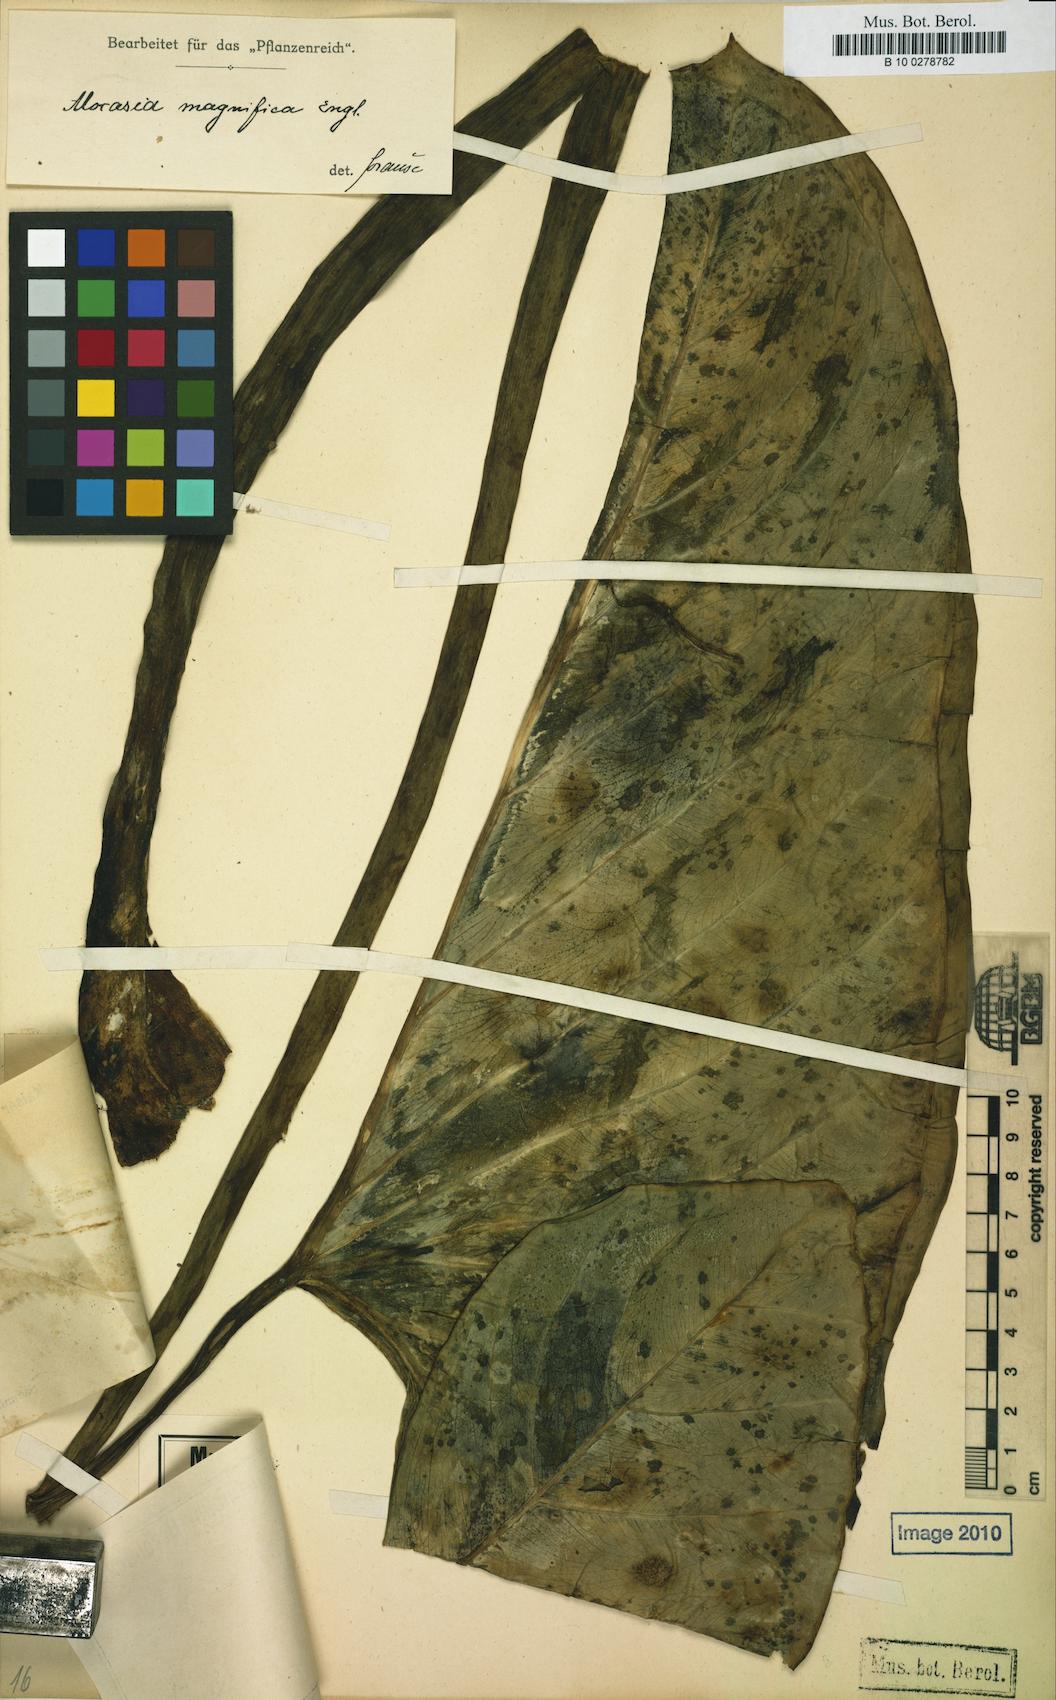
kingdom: Plantae
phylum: Tracheophyta
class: Liliopsida
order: Alismatales
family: Araceae
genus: Alocasia
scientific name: Alocasia aequiloba
